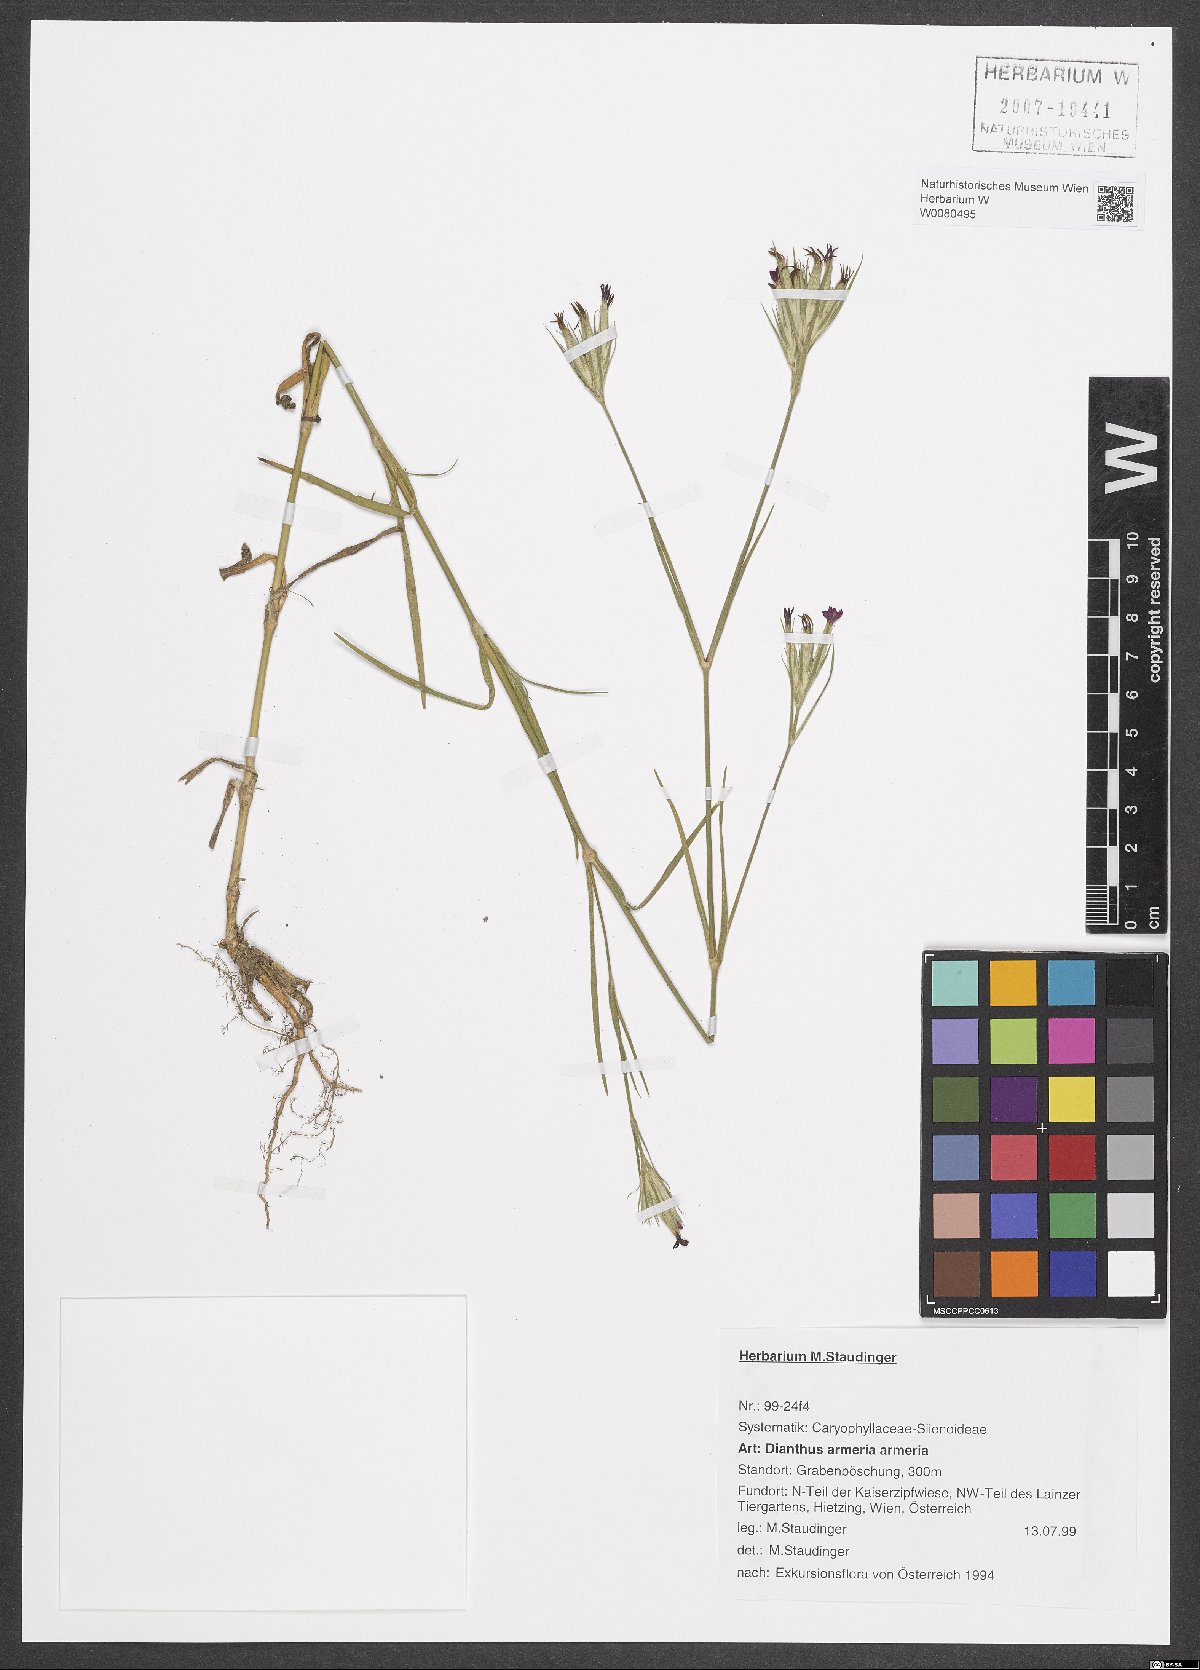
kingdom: Plantae
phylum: Tracheophyta
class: Magnoliopsida
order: Caryophyllales
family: Caryophyllaceae
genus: Dianthus
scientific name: Dianthus armeria
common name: Deptford pink
